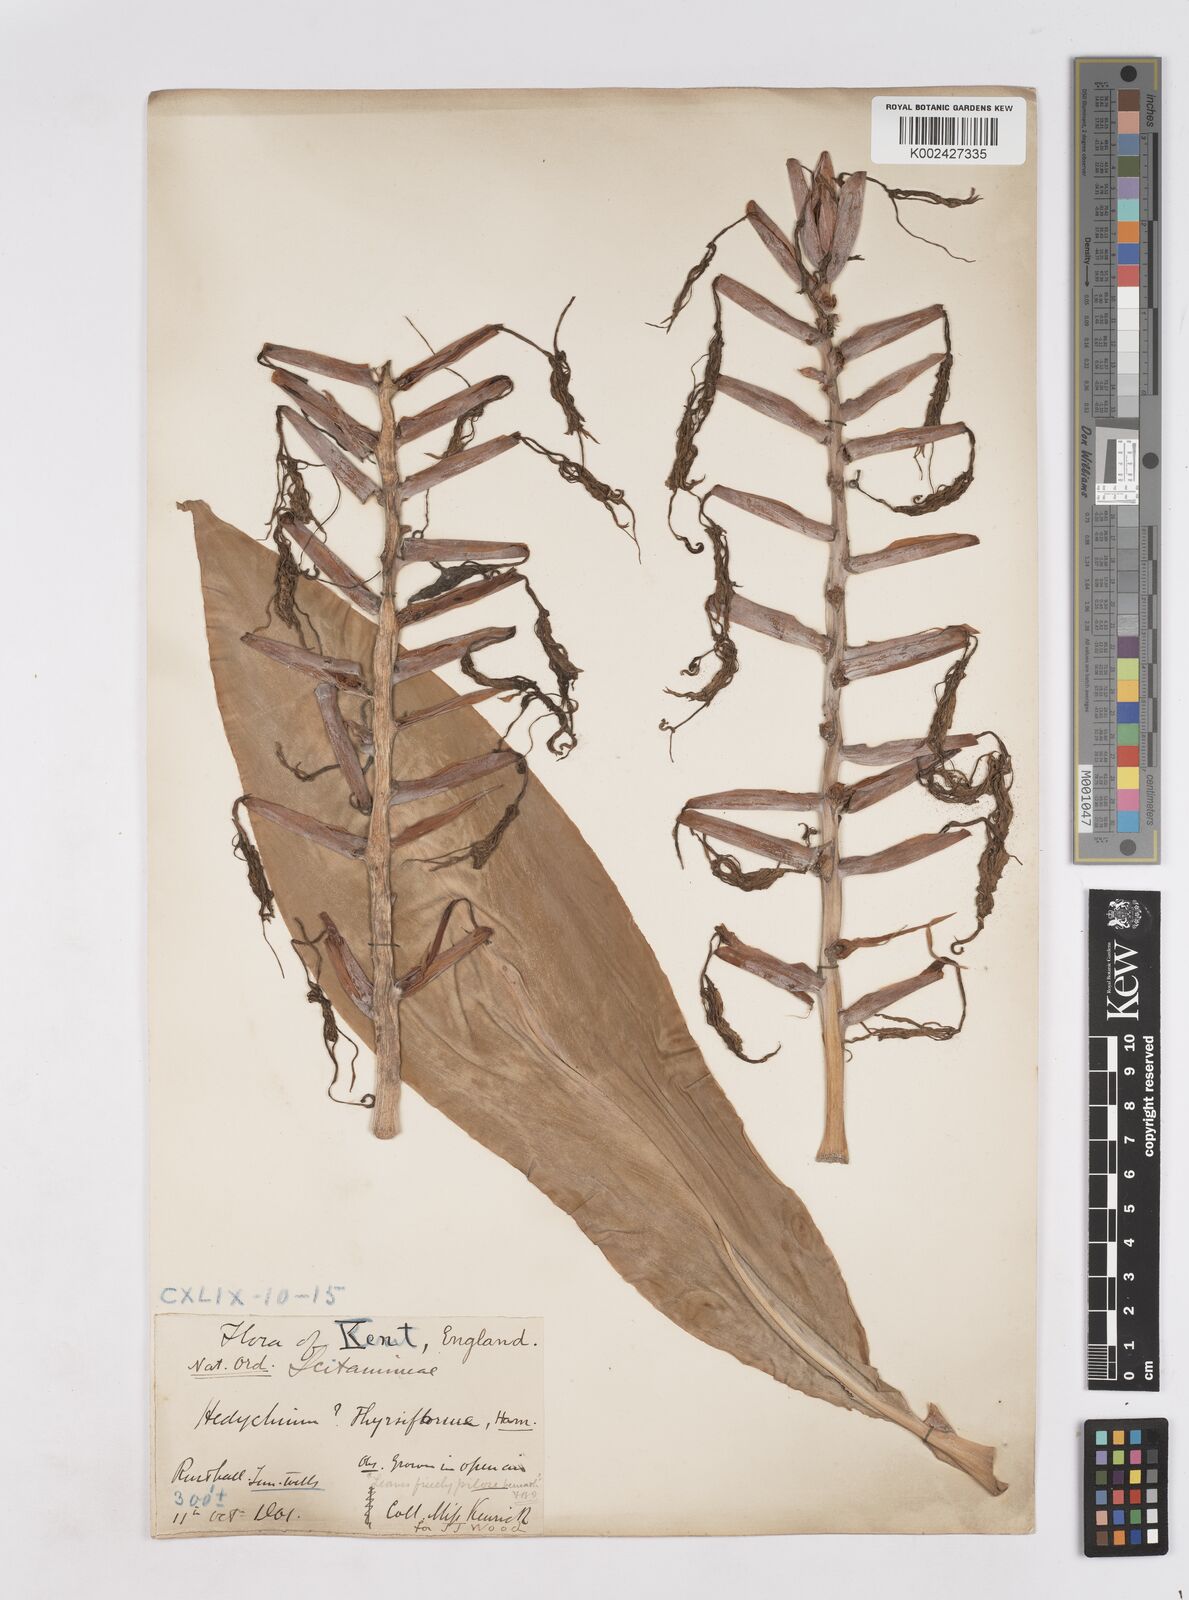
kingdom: Plantae
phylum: Tracheophyta
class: Liliopsida
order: Zingiberales
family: Zingiberaceae
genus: Hedychium
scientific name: Hedychium gardnerianum
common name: Himalayan ginger
